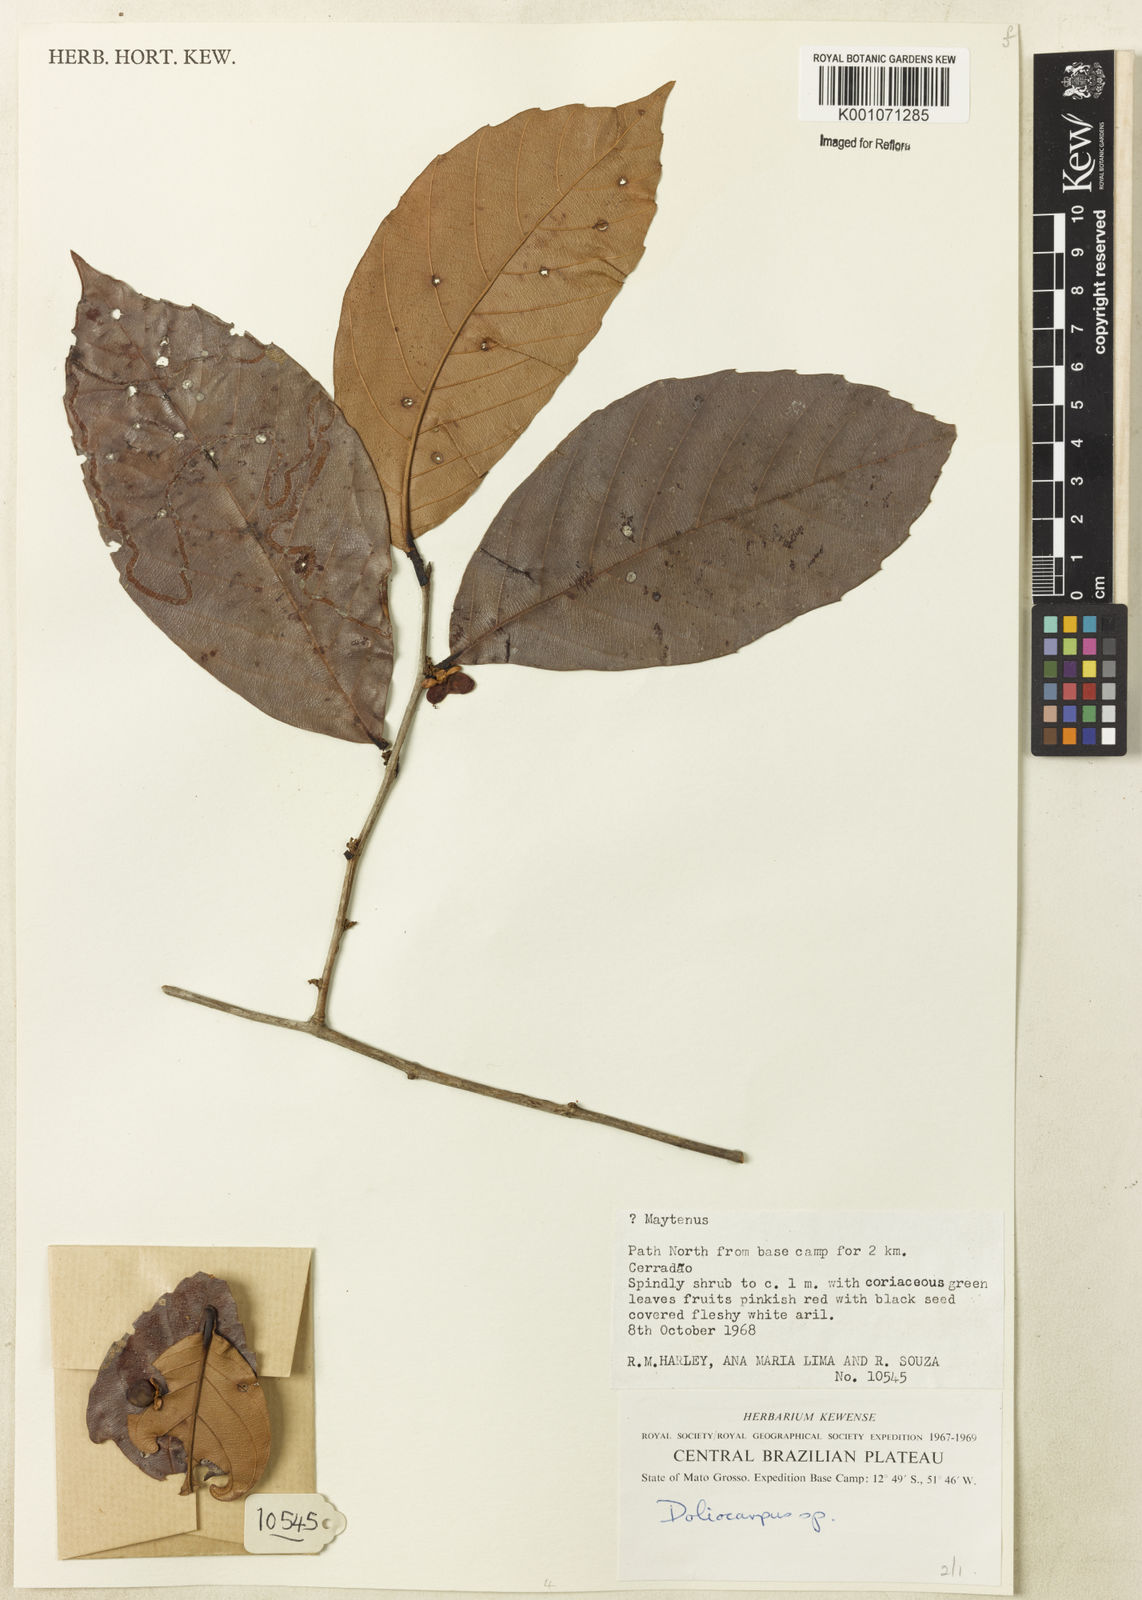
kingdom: Plantae
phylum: Tracheophyta
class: Magnoliopsida
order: Dilleniales
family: Dilleniaceae
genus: Doliocarpus
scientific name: Doliocarpus
